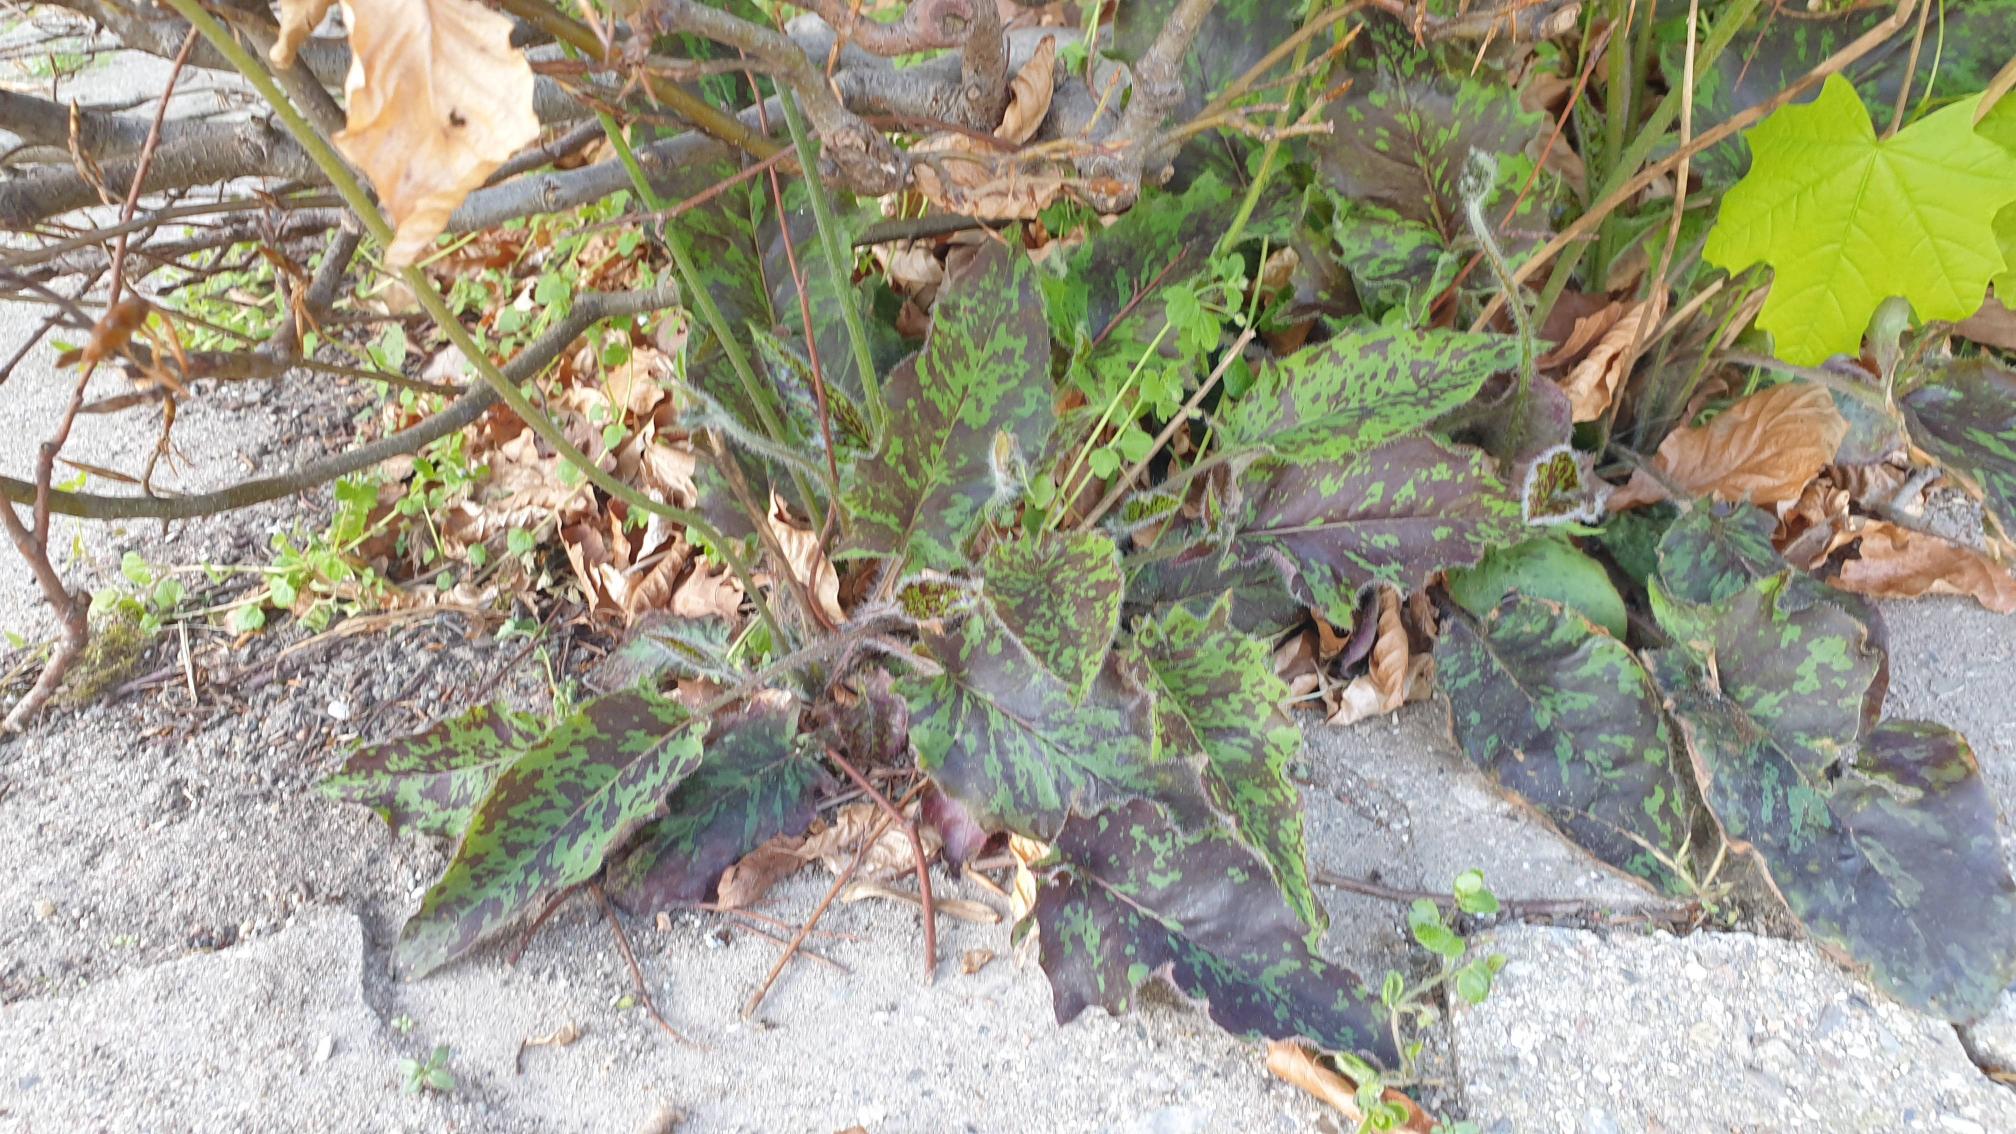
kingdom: Plantae
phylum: Tracheophyta
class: Magnoliopsida
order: Asterales
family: Asteraceae
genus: Hieracium
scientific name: Hieracium glaucinum
